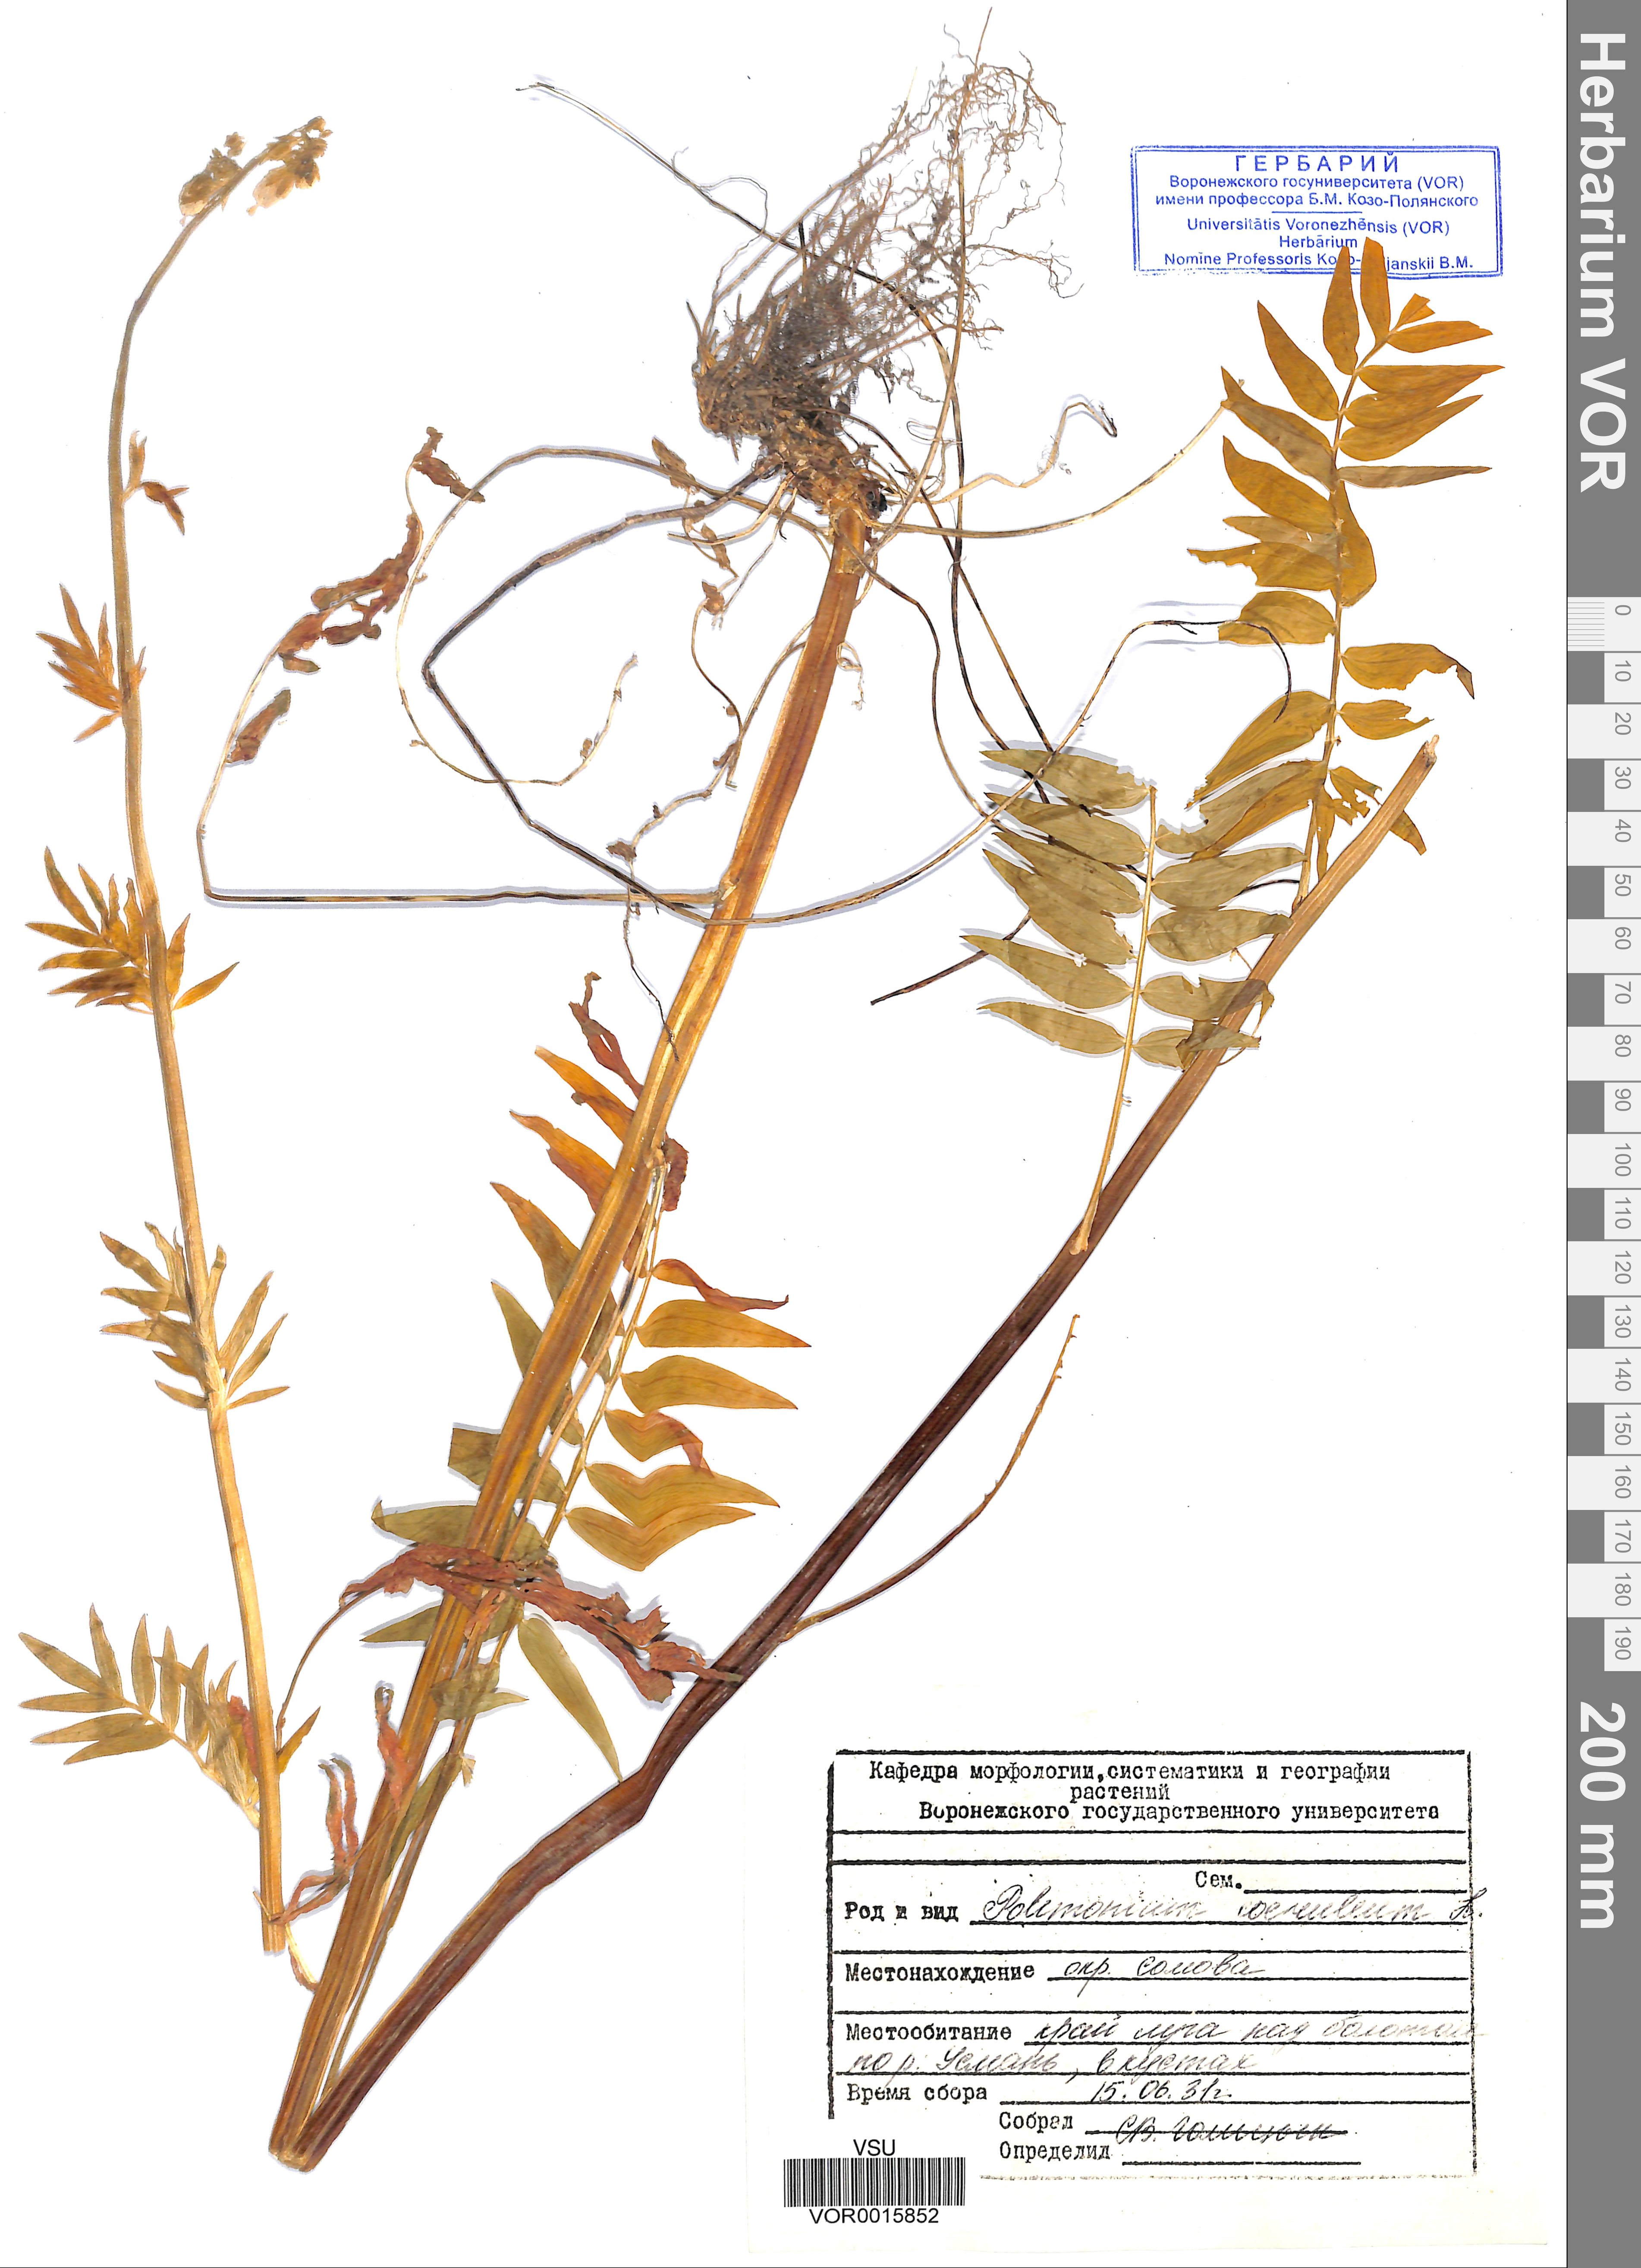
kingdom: Plantae
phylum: Tracheophyta
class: Magnoliopsida
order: Ericales
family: Polemoniaceae
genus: Polemonium
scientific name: Polemonium caeruleum
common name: Jacob's-ladder
